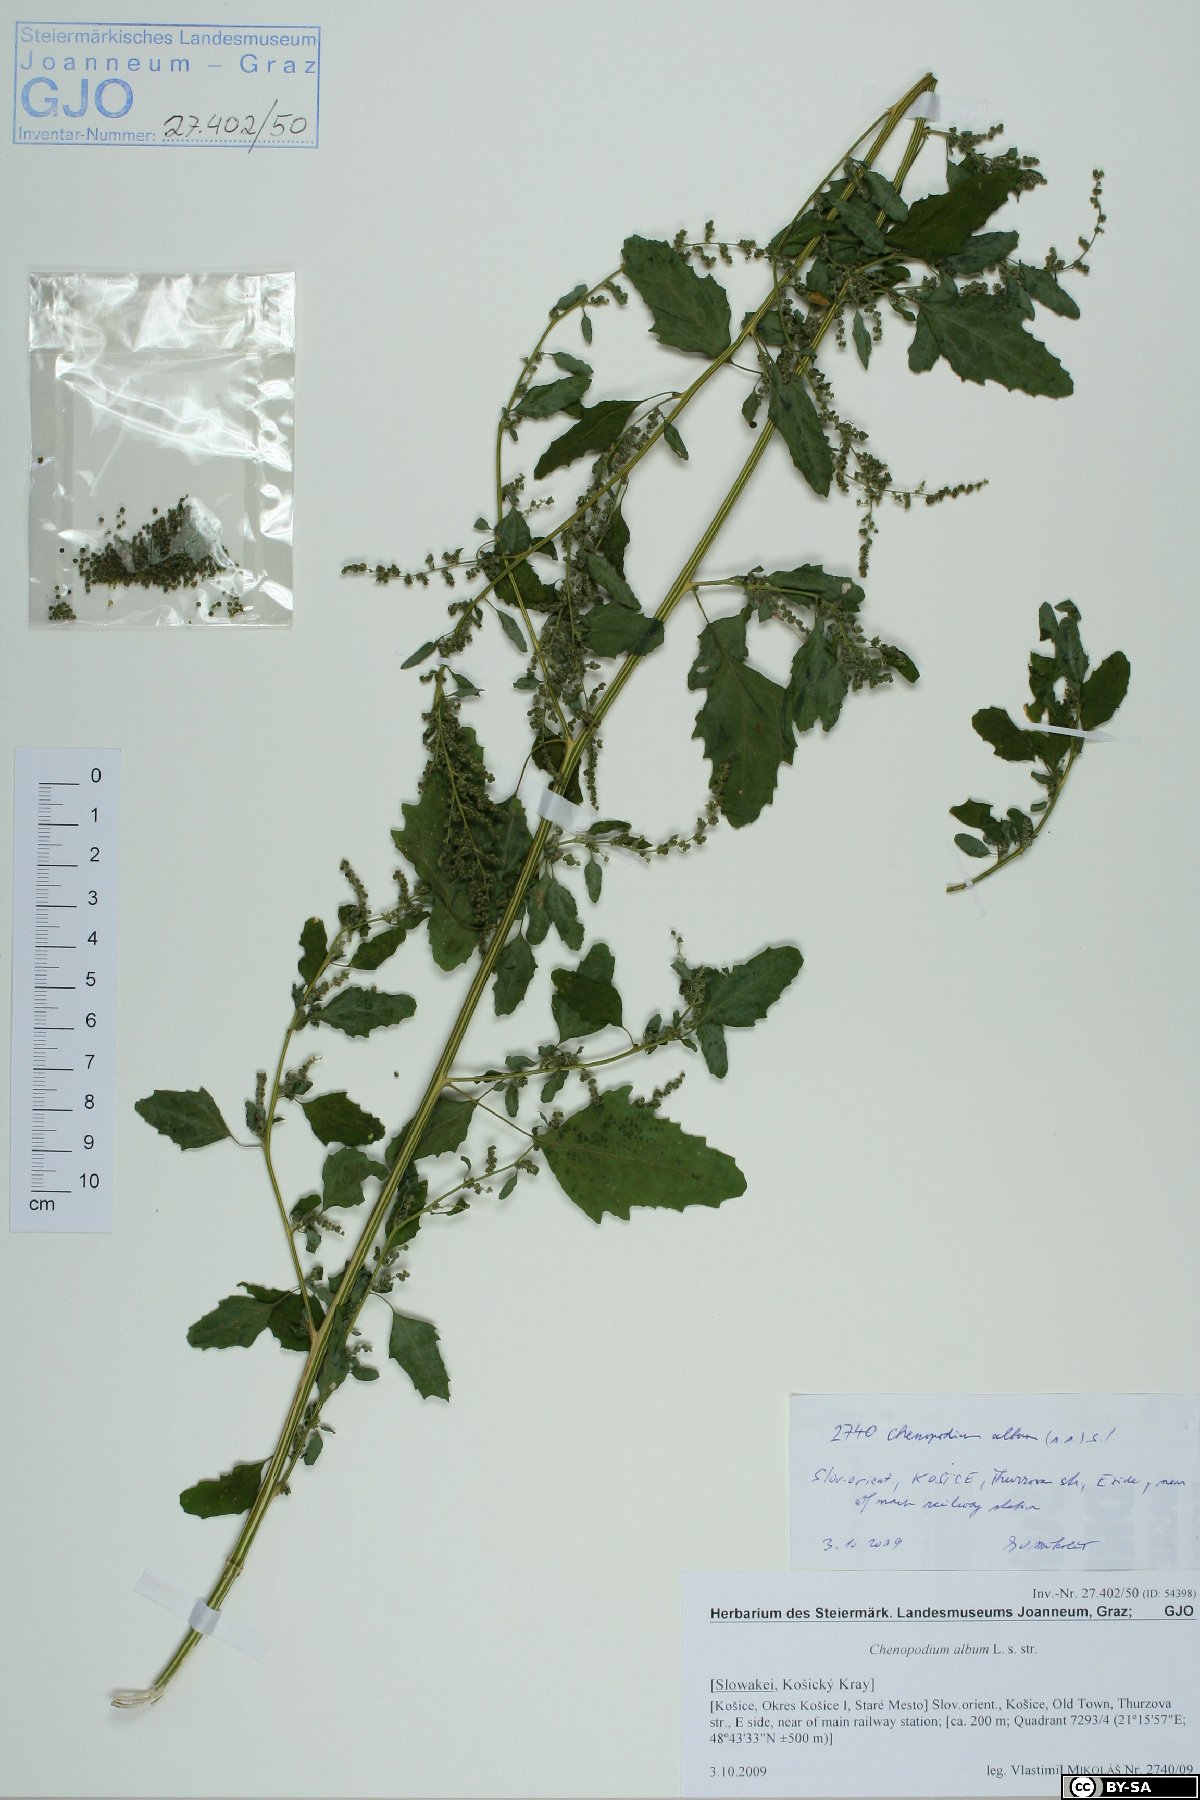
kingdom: Plantae
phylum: Tracheophyta
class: Magnoliopsida
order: Caryophyllales
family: Amaranthaceae
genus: Chenopodium
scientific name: Chenopodium album
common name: Fat-hen
